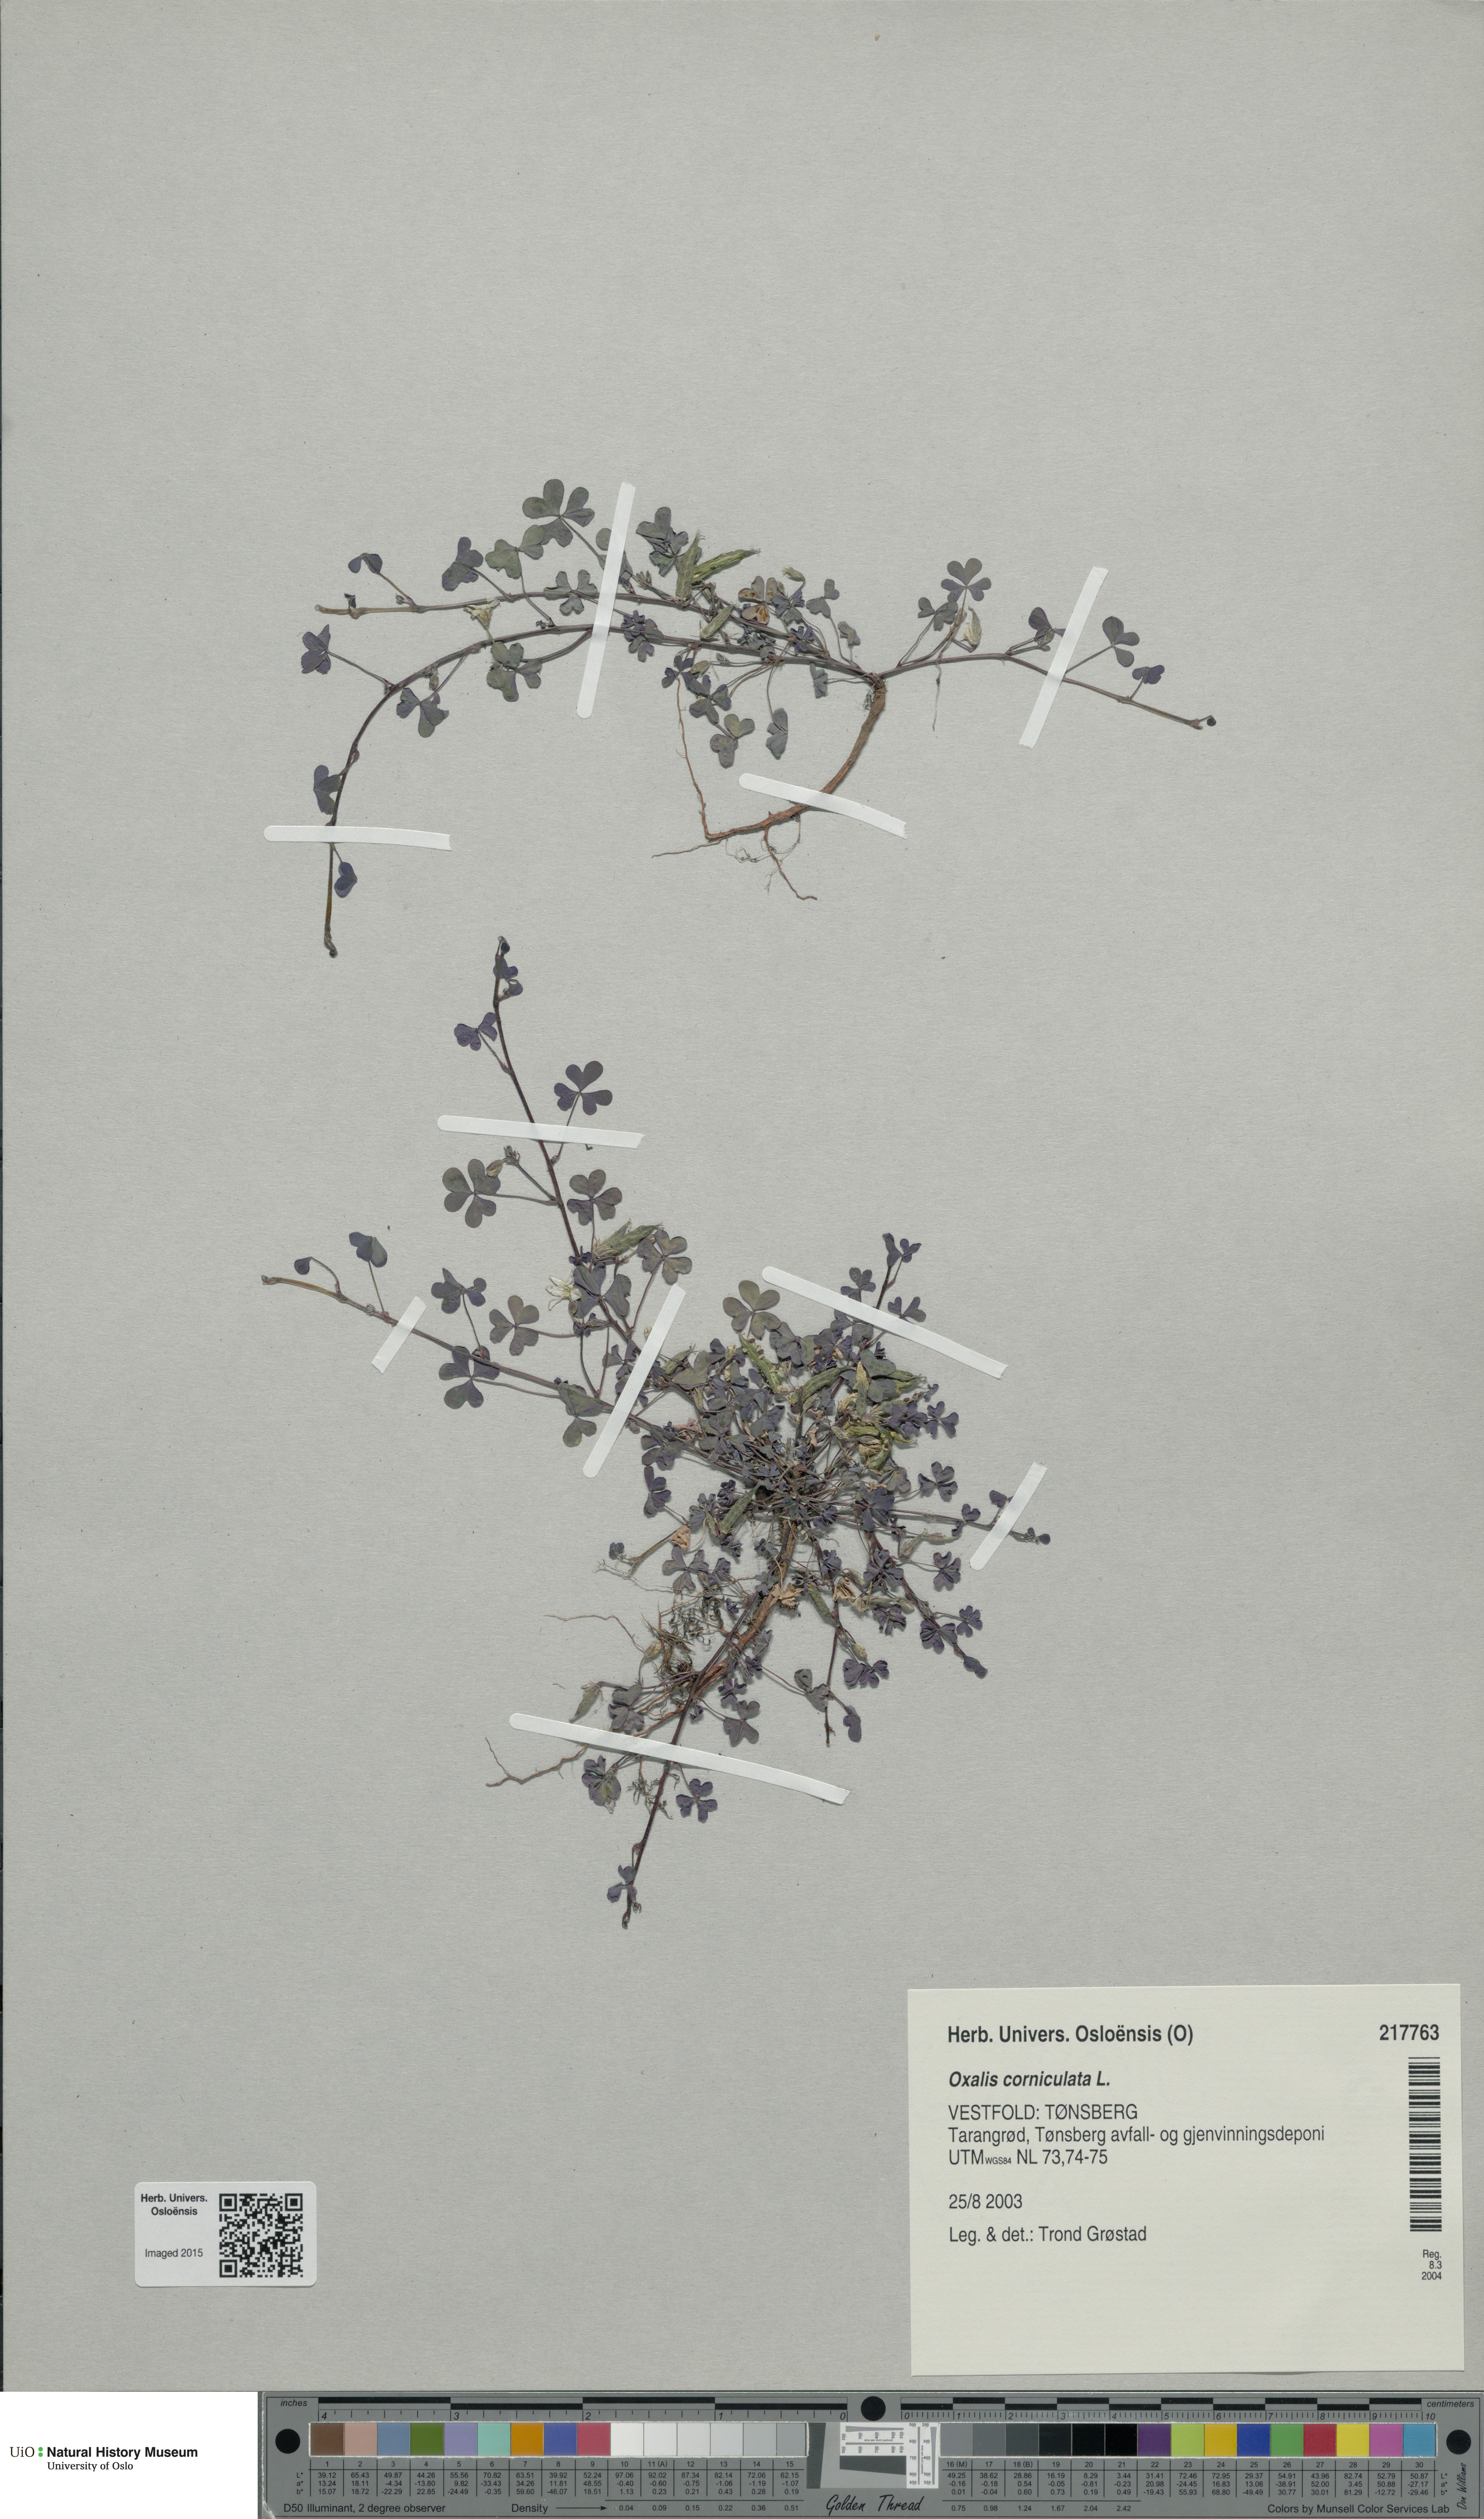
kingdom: Plantae
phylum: Tracheophyta
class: Magnoliopsida
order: Oxalidales
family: Oxalidaceae
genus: Oxalis
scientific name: Oxalis corniculata
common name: Procumbent yellow-sorrel
